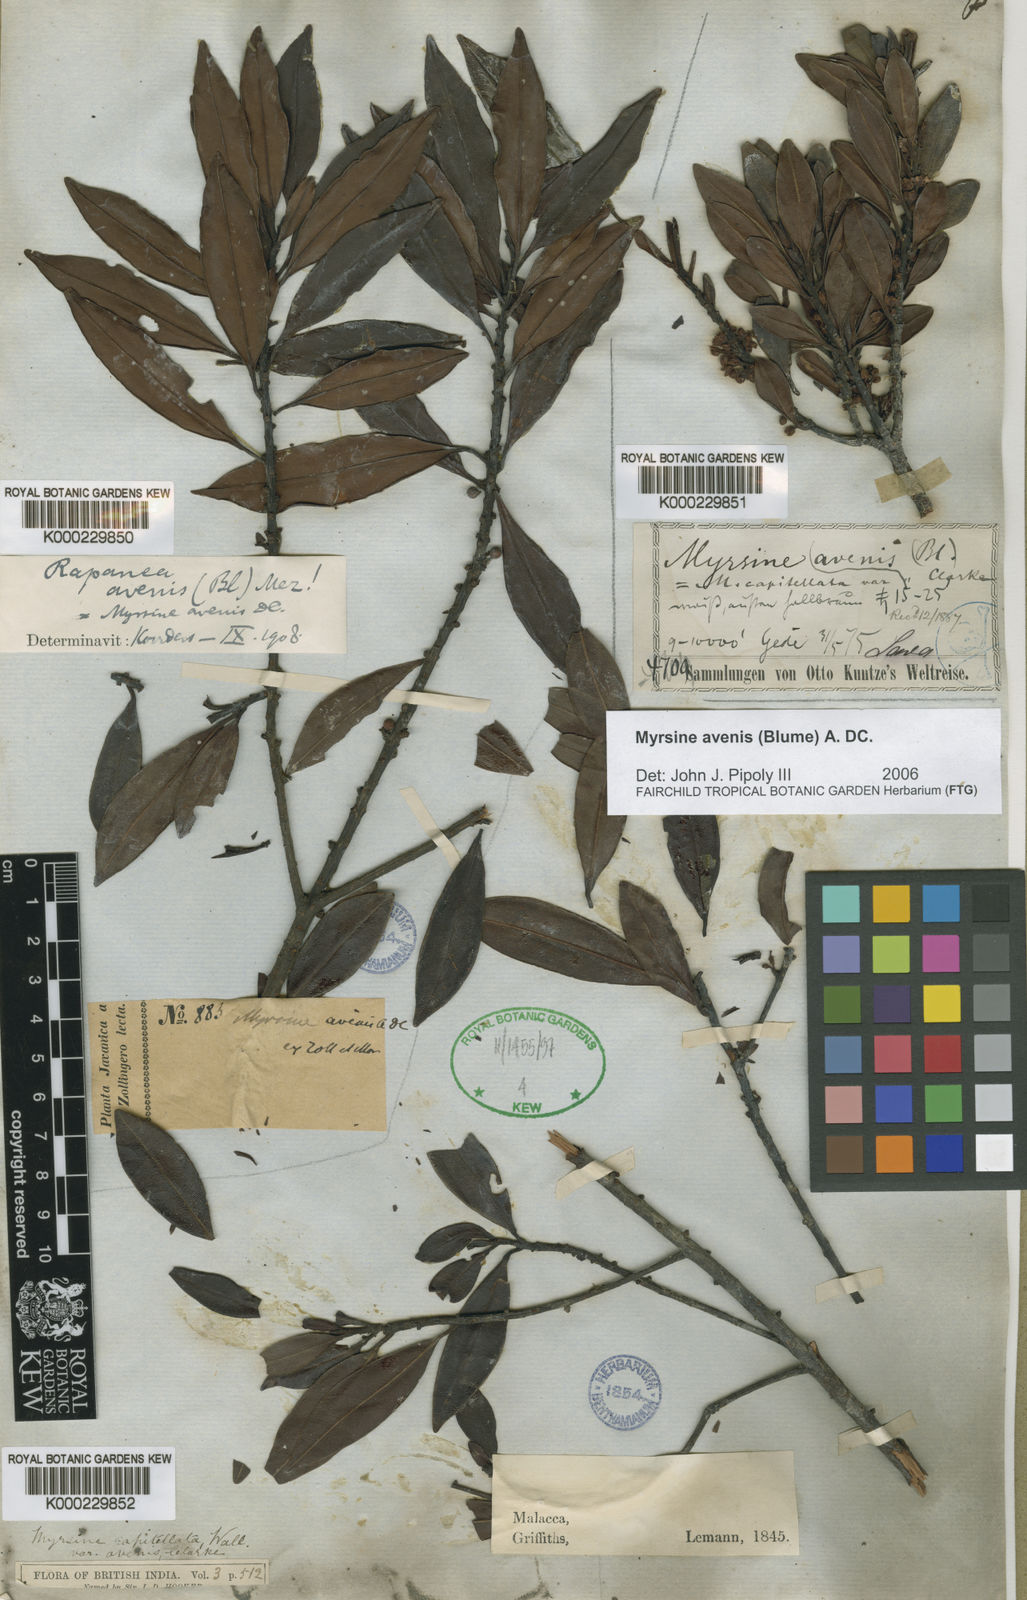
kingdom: Plantae
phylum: Tracheophyta
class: Magnoliopsida
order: Ericales
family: Primulaceae
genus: Myrsine
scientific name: Myrsine avenis
